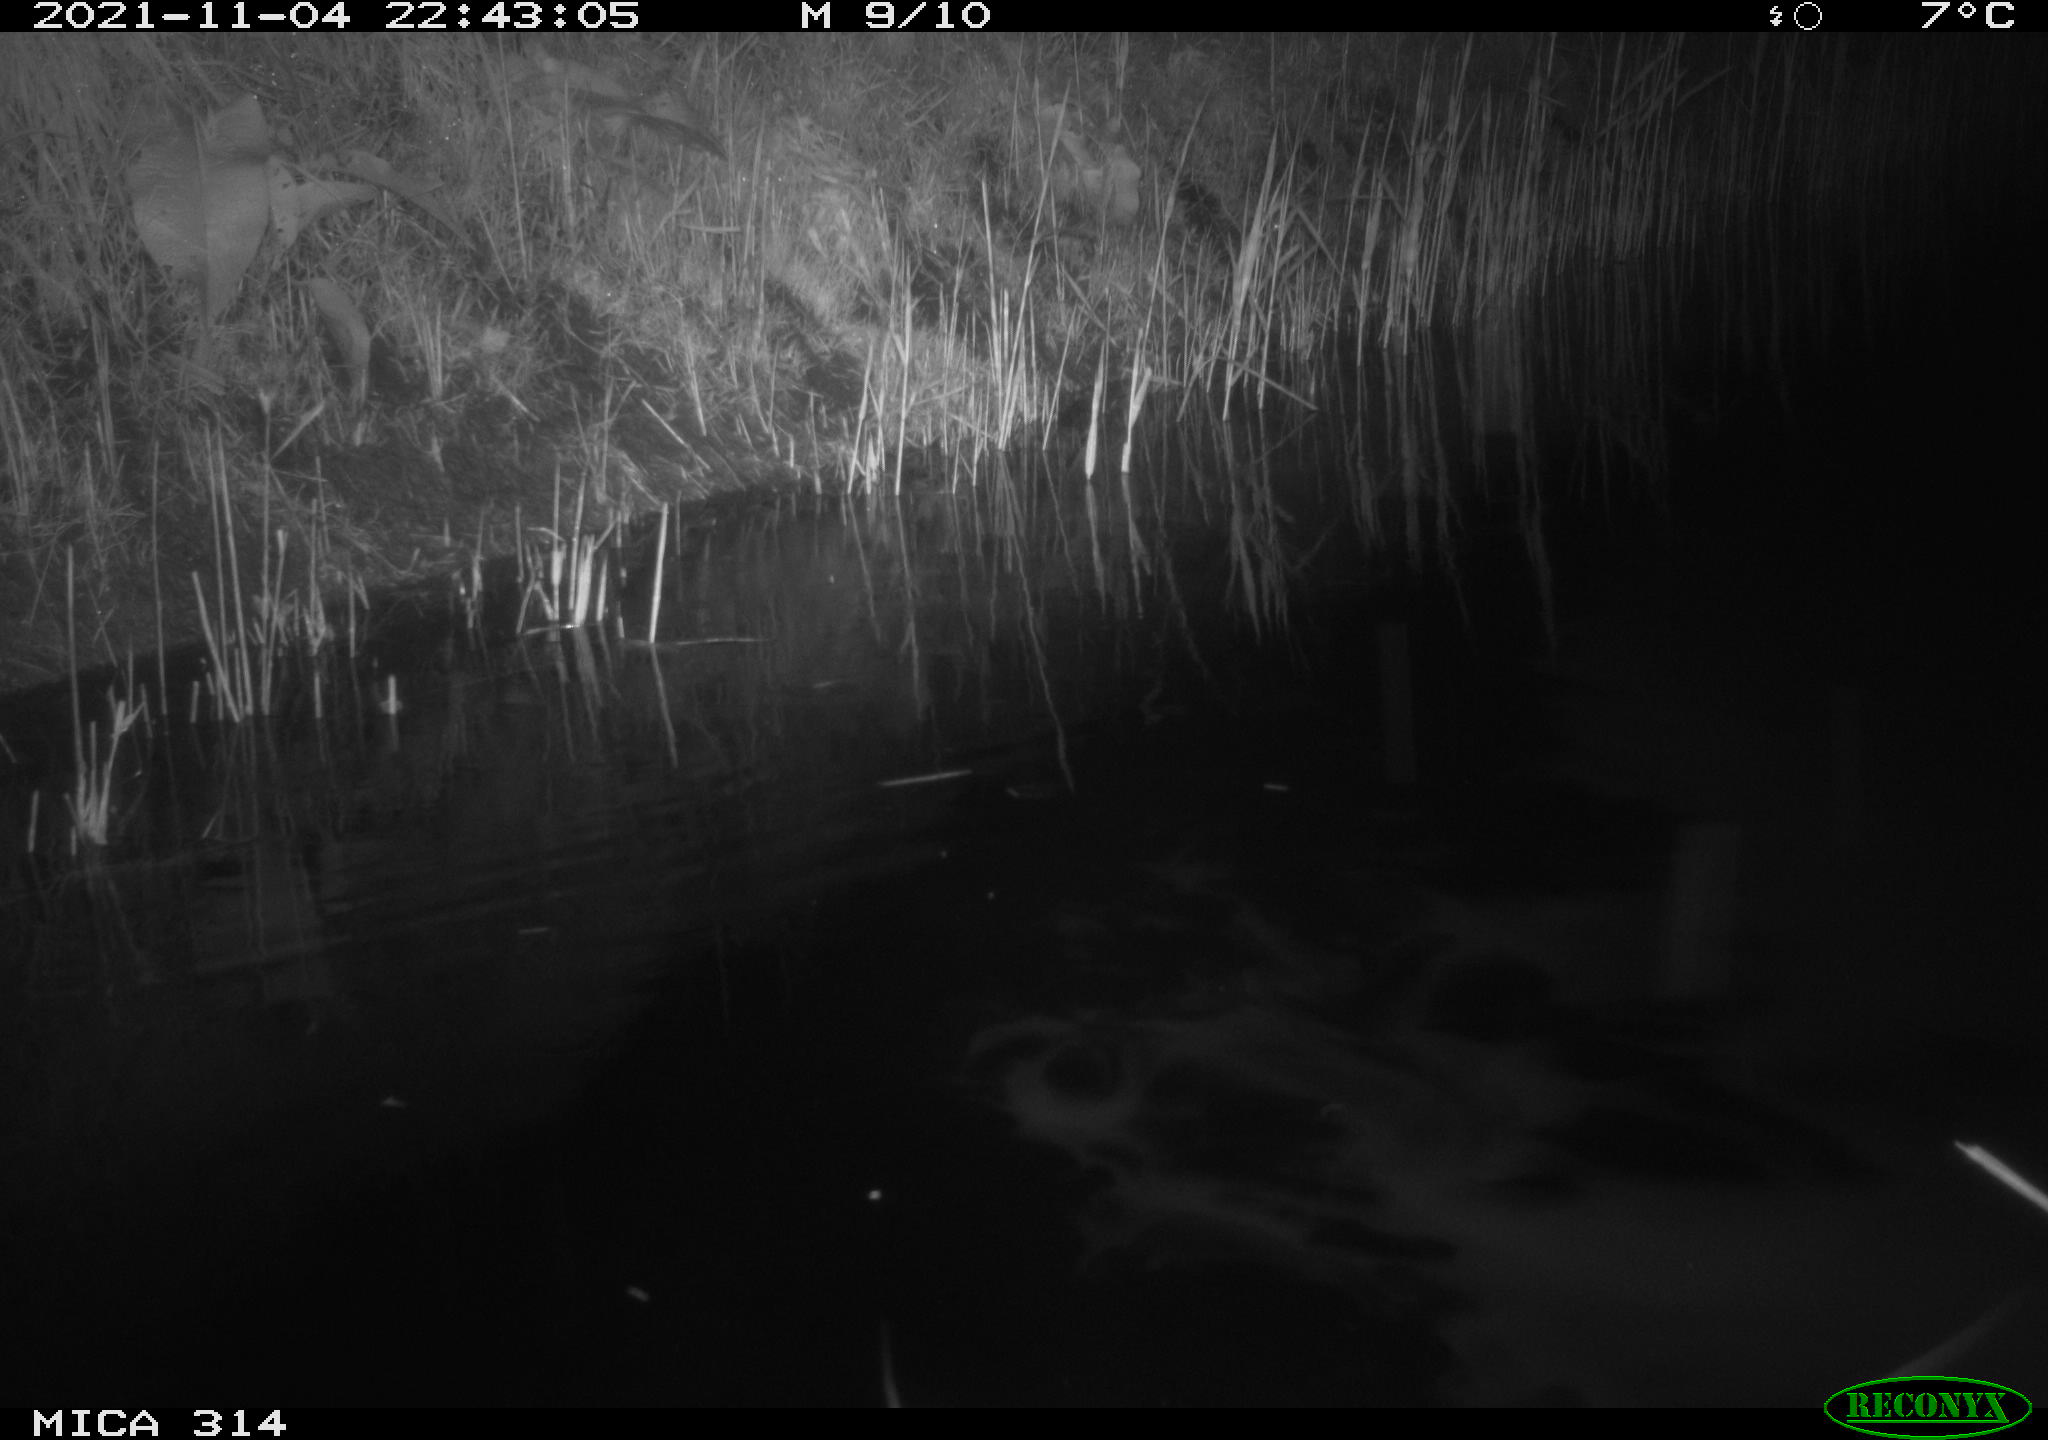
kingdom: Animalia
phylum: Chordata
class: Mammalia
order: Rodentia
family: Muridae
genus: Rattus
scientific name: Rattus norvegicus
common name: Brown rat
